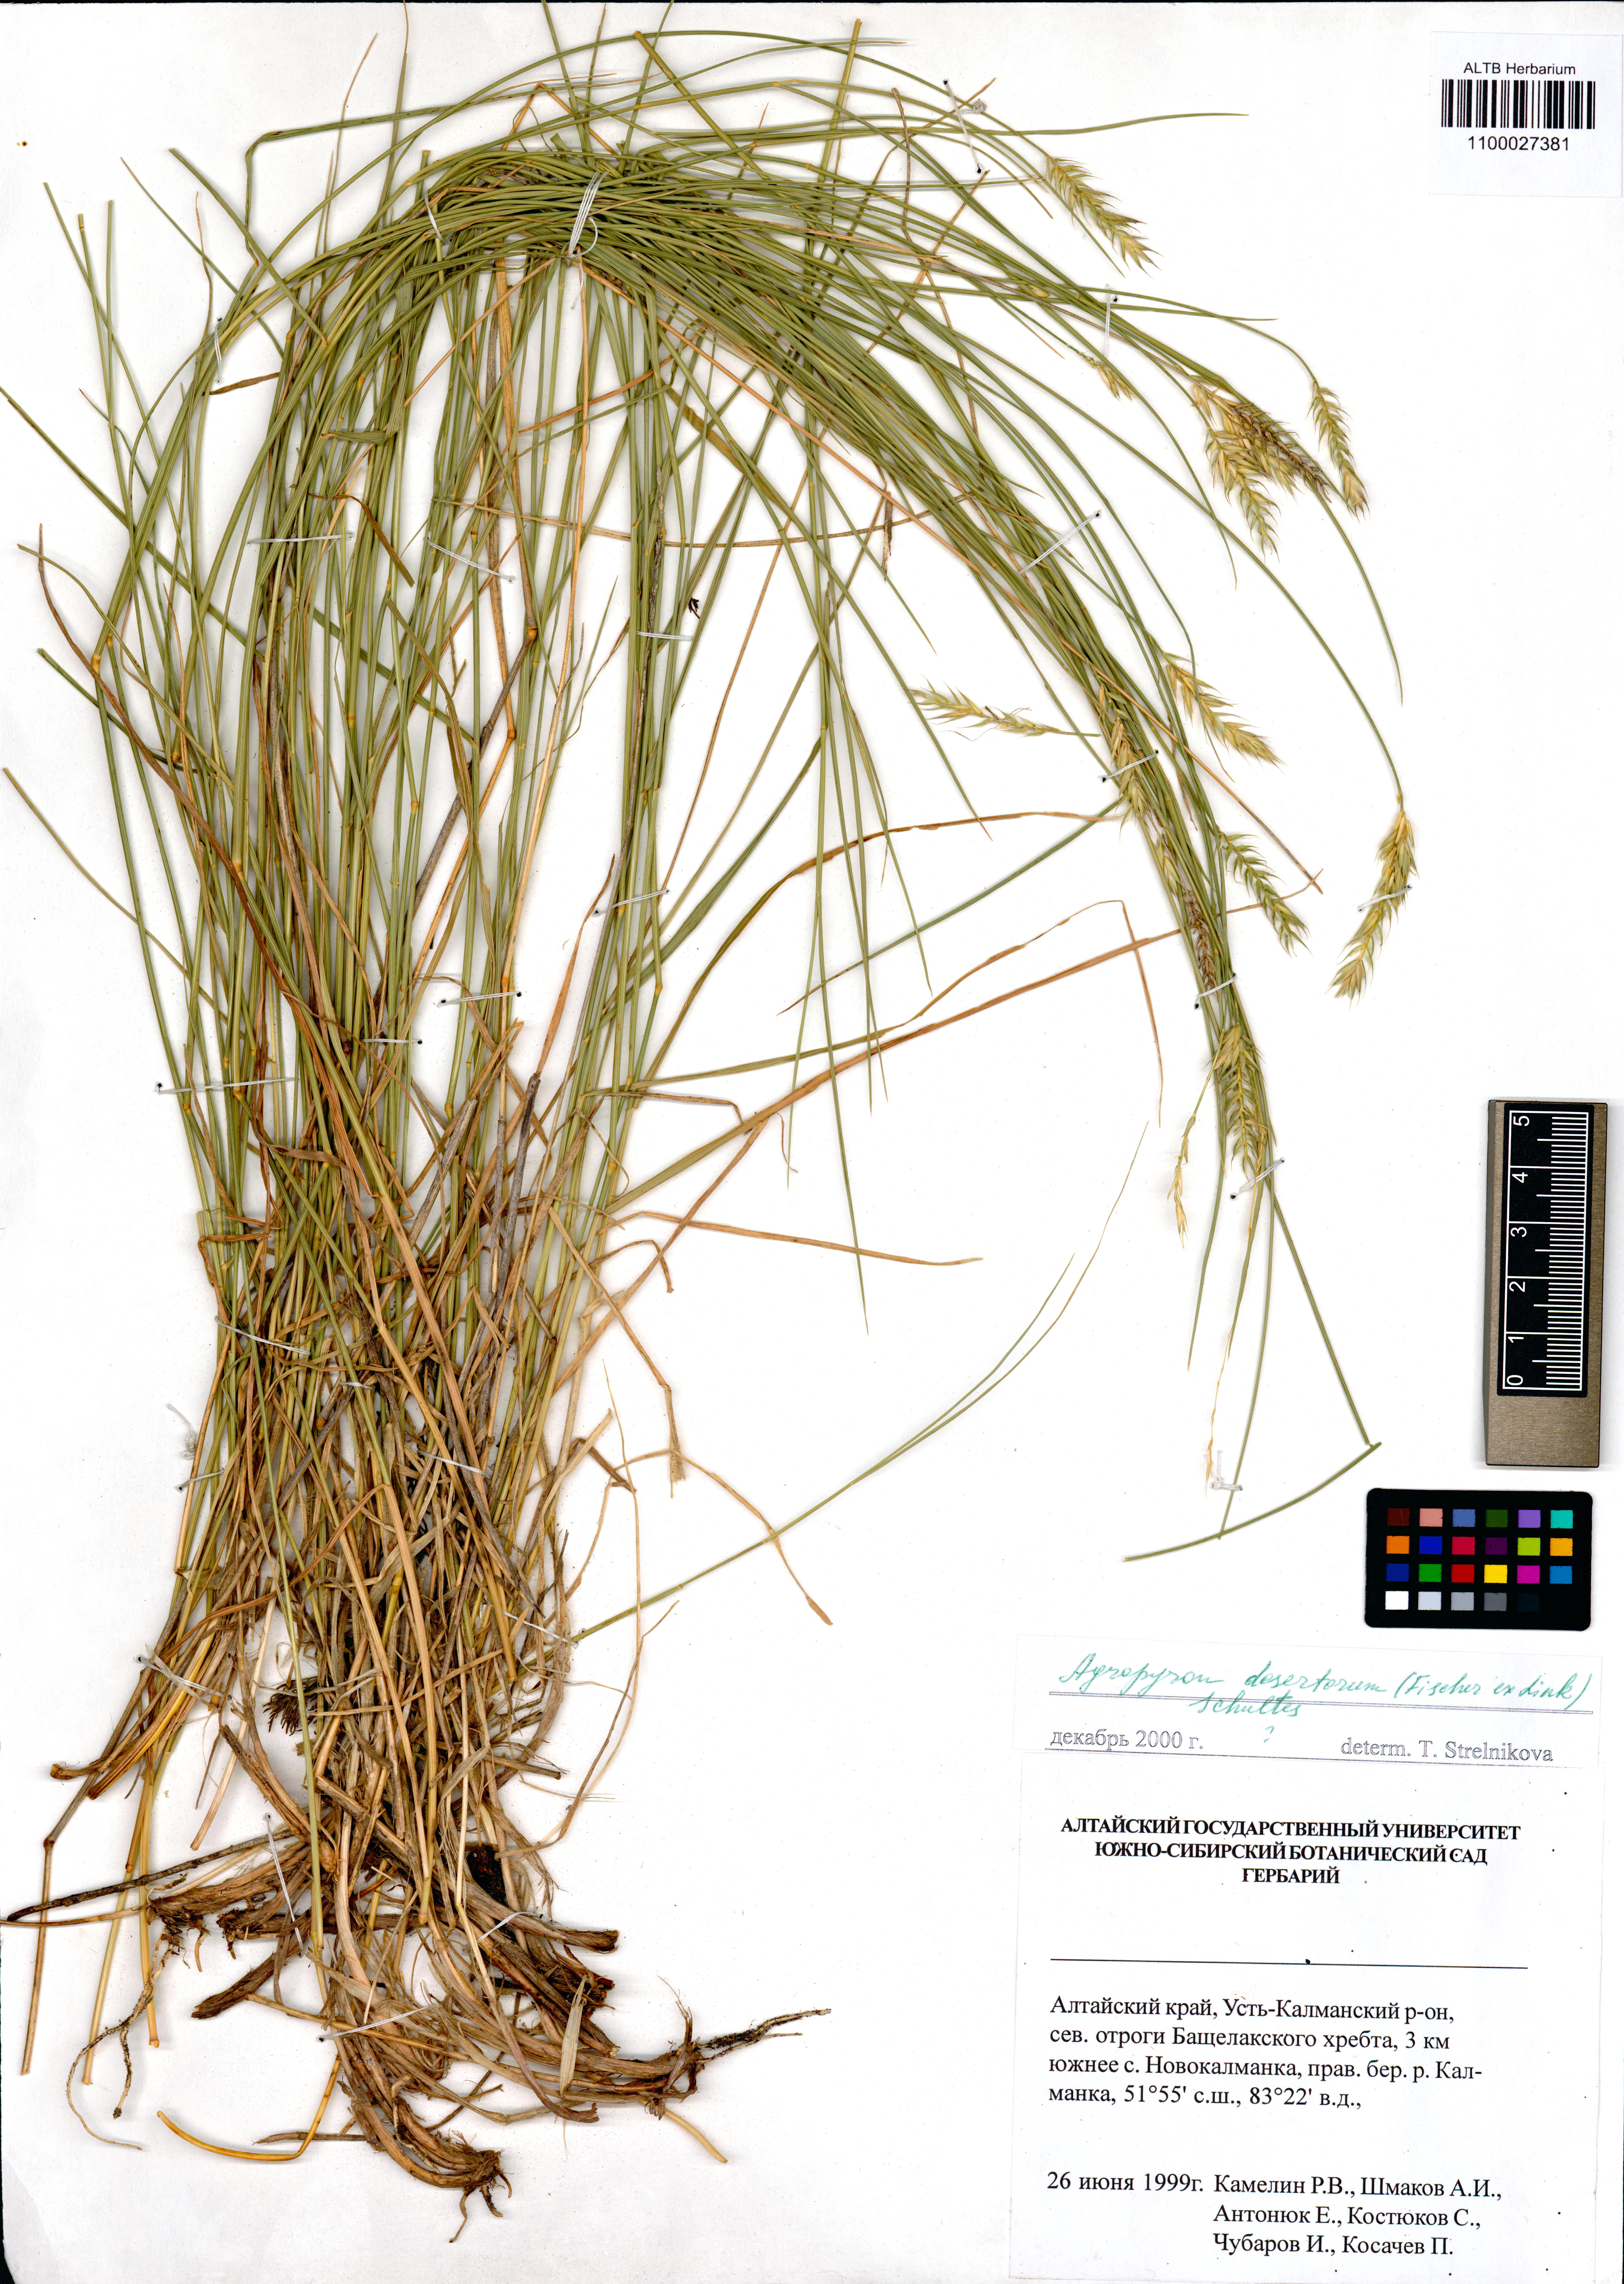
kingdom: Plantae
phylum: Tracheophyta
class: Liliopsida
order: Poales
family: Poaceae
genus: Agropyron
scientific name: Agropyron desertorum
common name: Desert wheatgrass
